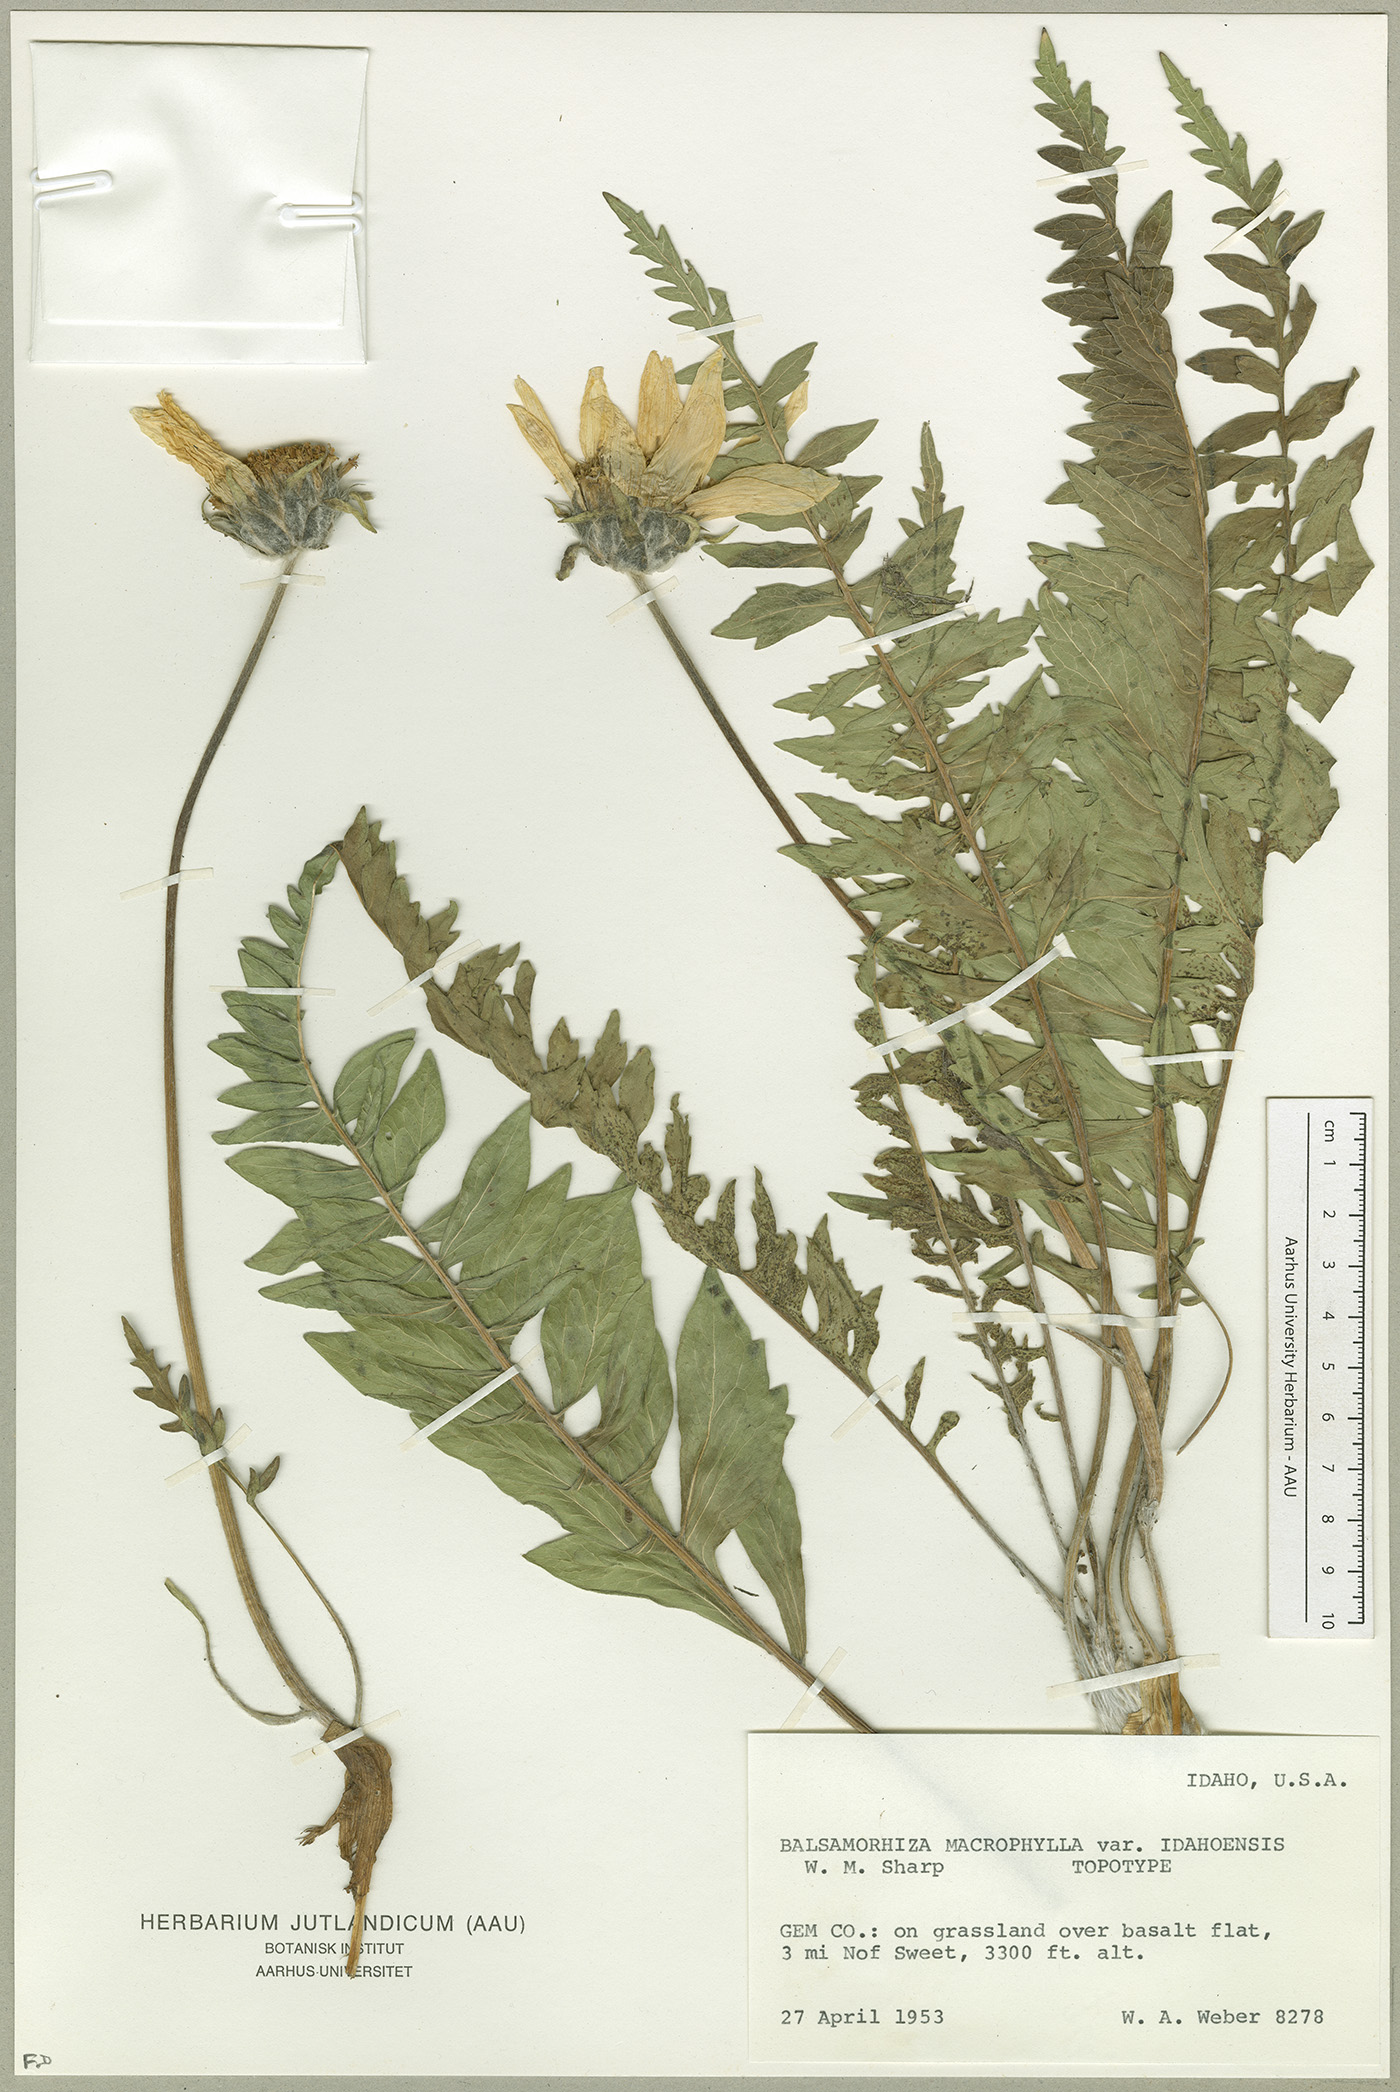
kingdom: Plantae
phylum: Tracheophyta
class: Magnoliopsida
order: Asterales
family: Asteraceae
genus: Balsamorhiza
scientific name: Balsamorhiza macrophylla
